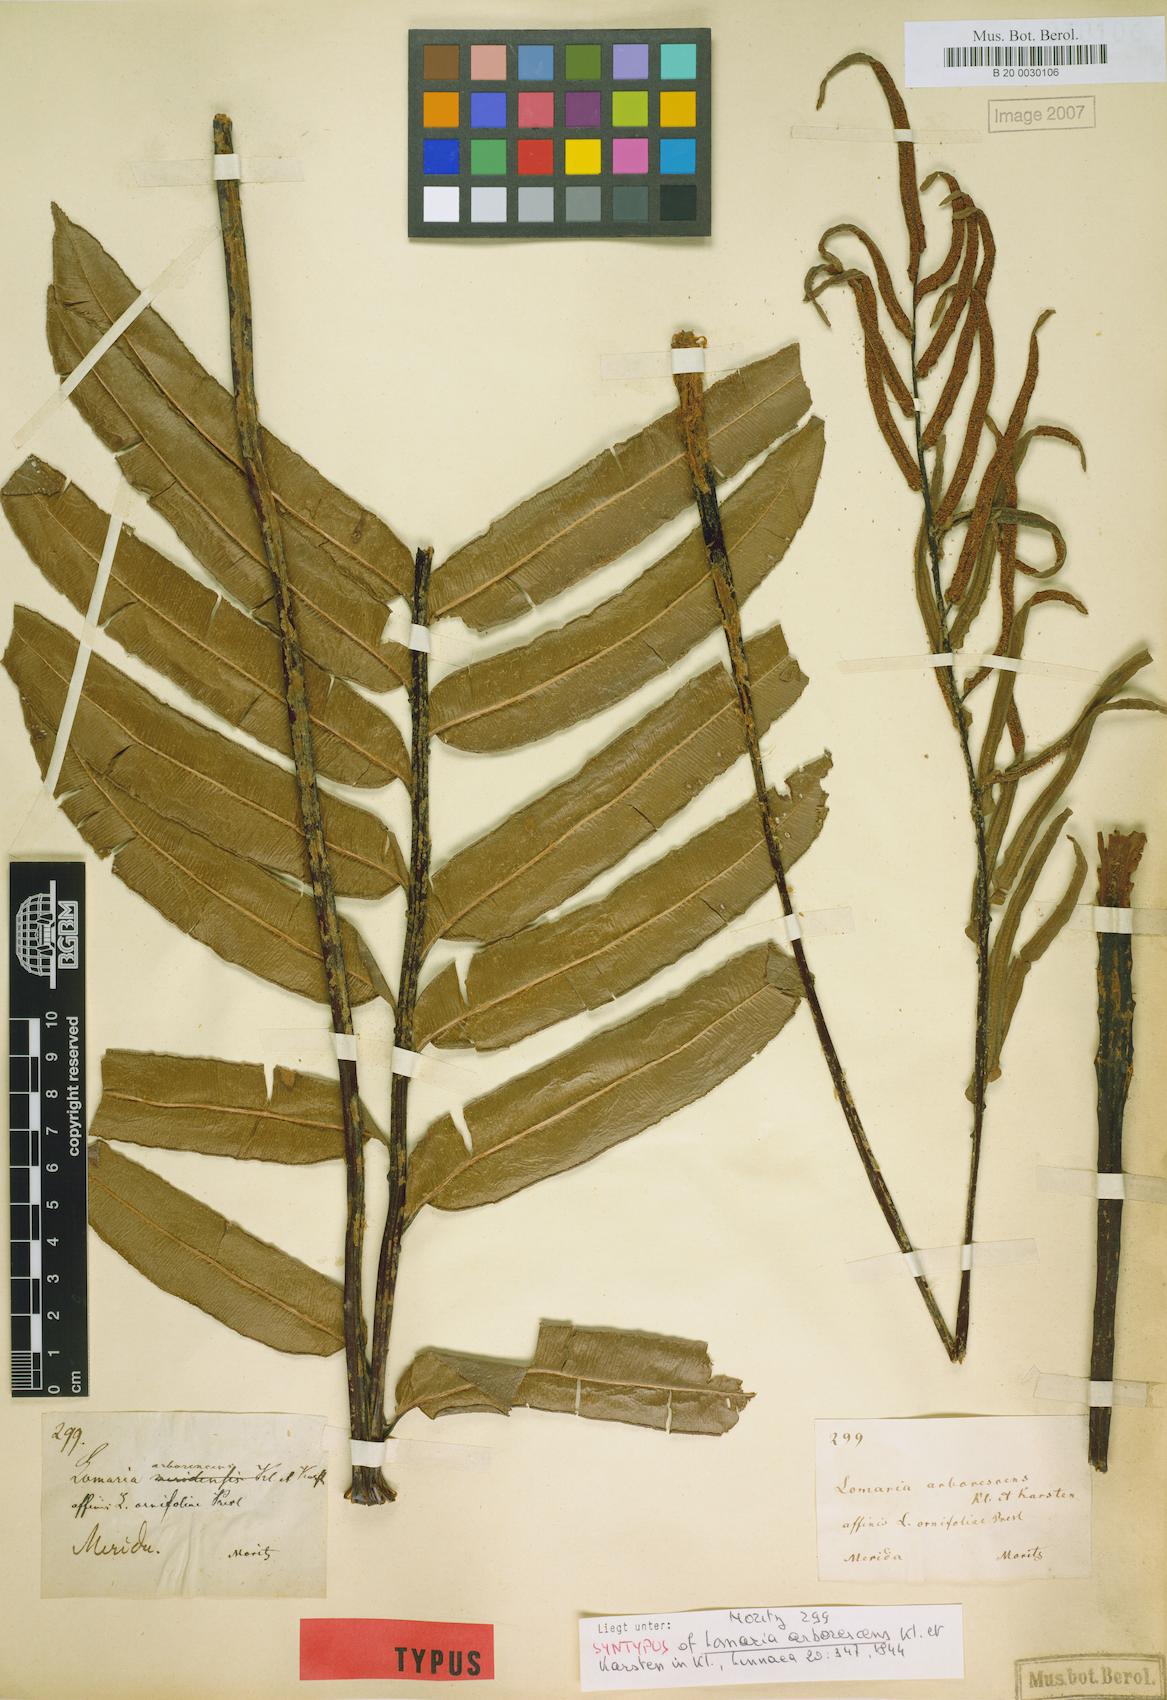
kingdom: Plantae
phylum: Tracheophyta
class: Polypodiopsida
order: Polypodiales
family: Blechnaceae
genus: Parablechnum
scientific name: Parablechnum cordatum
